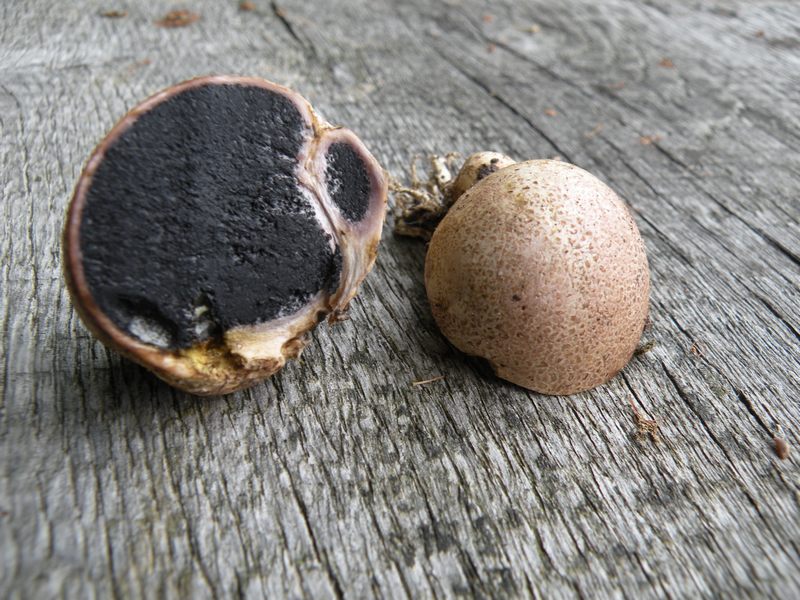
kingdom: Fungi
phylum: Basidiomycota
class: Agaricomycetes
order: Boletales
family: Sclerodermataceae
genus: Scleroderma
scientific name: Scleroderma areolatum
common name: plettet bruskbold
